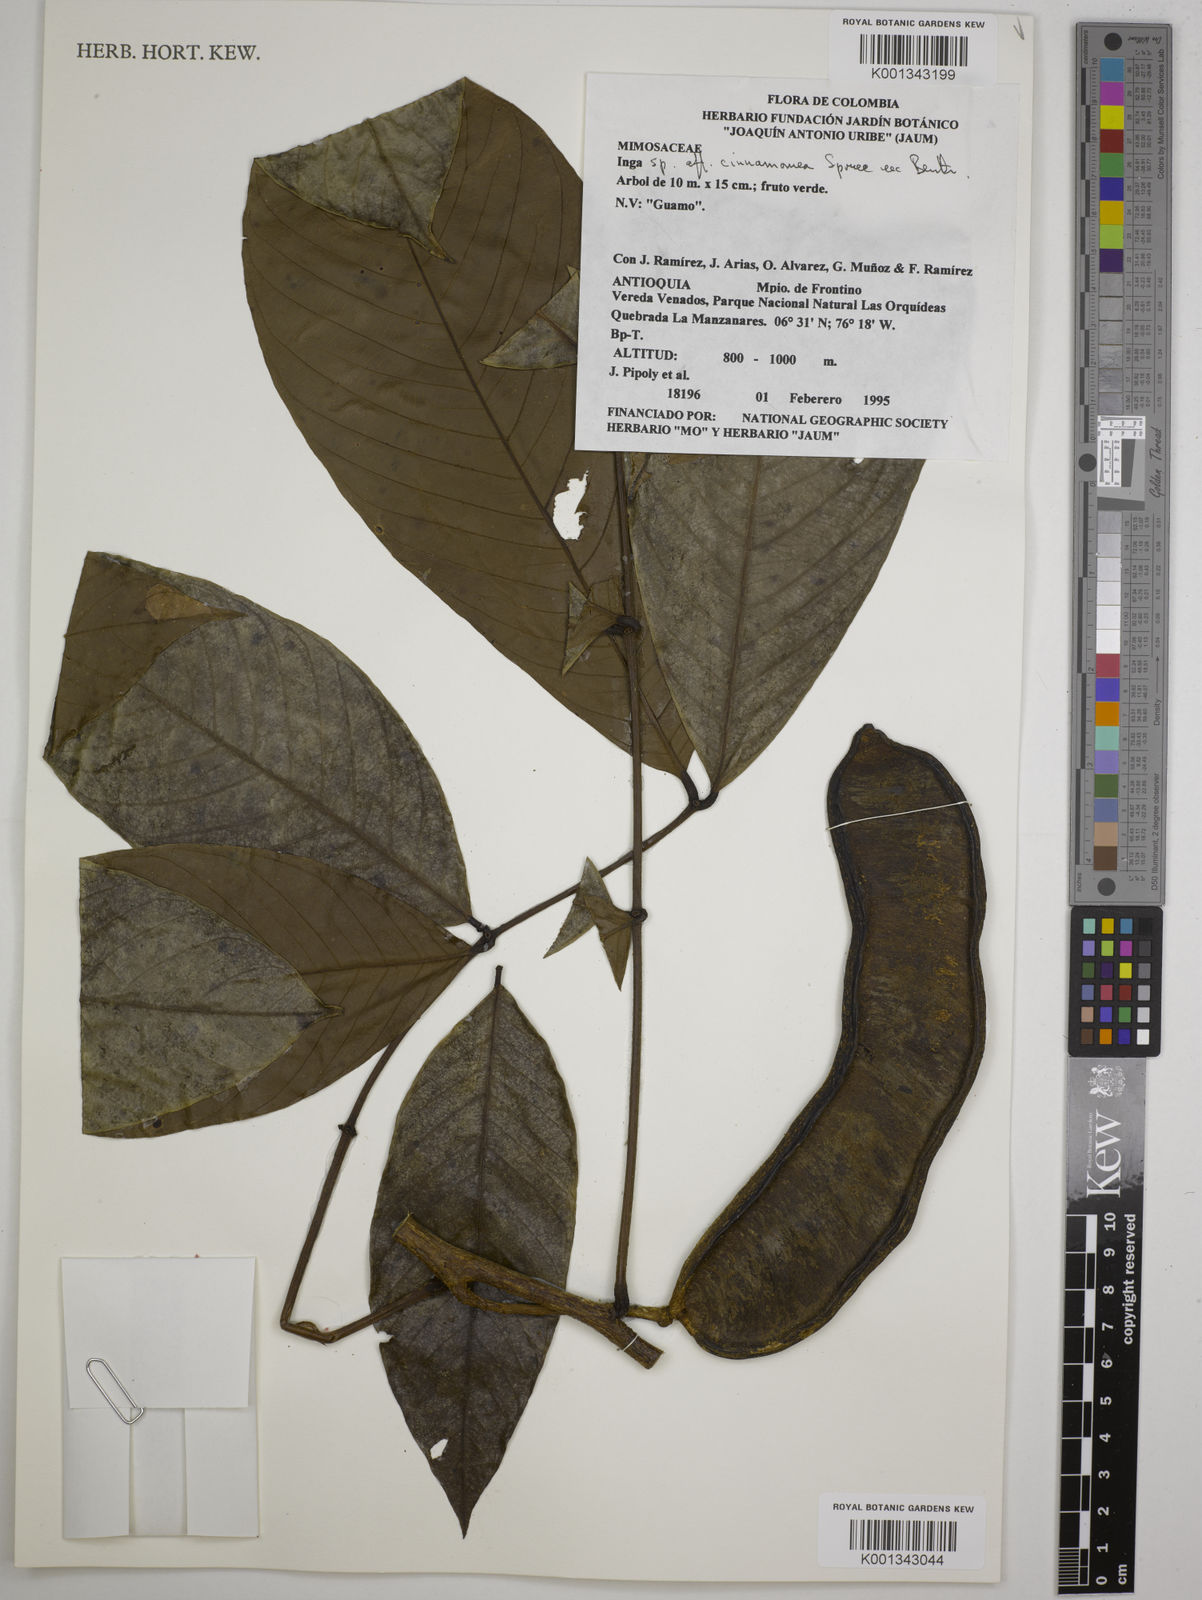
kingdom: Plantae
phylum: Tracheophyta
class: Magnoliopsida
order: Fabales
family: Fabaceae
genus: Inga
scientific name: Inga cinnamomea
